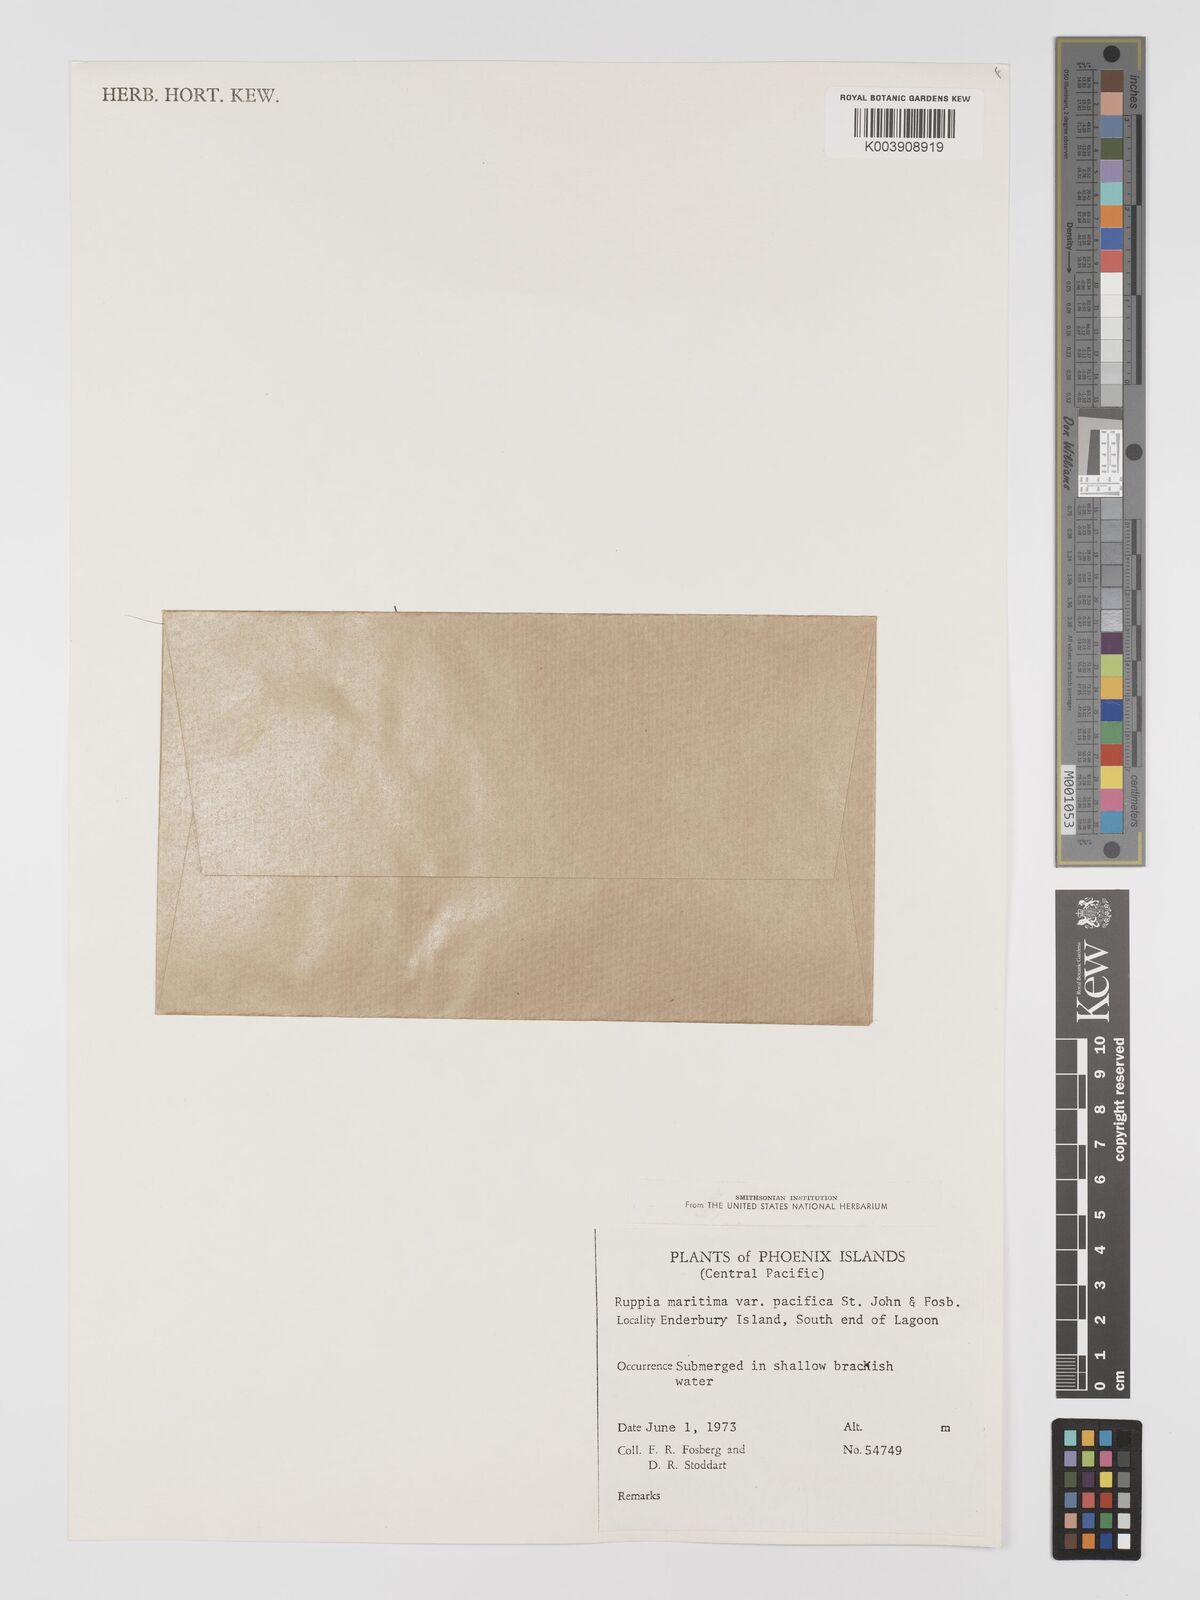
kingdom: Plantae
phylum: Tracheophyta
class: Liliopsida
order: Alismatales
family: Ruppiaceae
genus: Ruppia
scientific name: Ruppia maritima
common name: Beaked tasselweed
